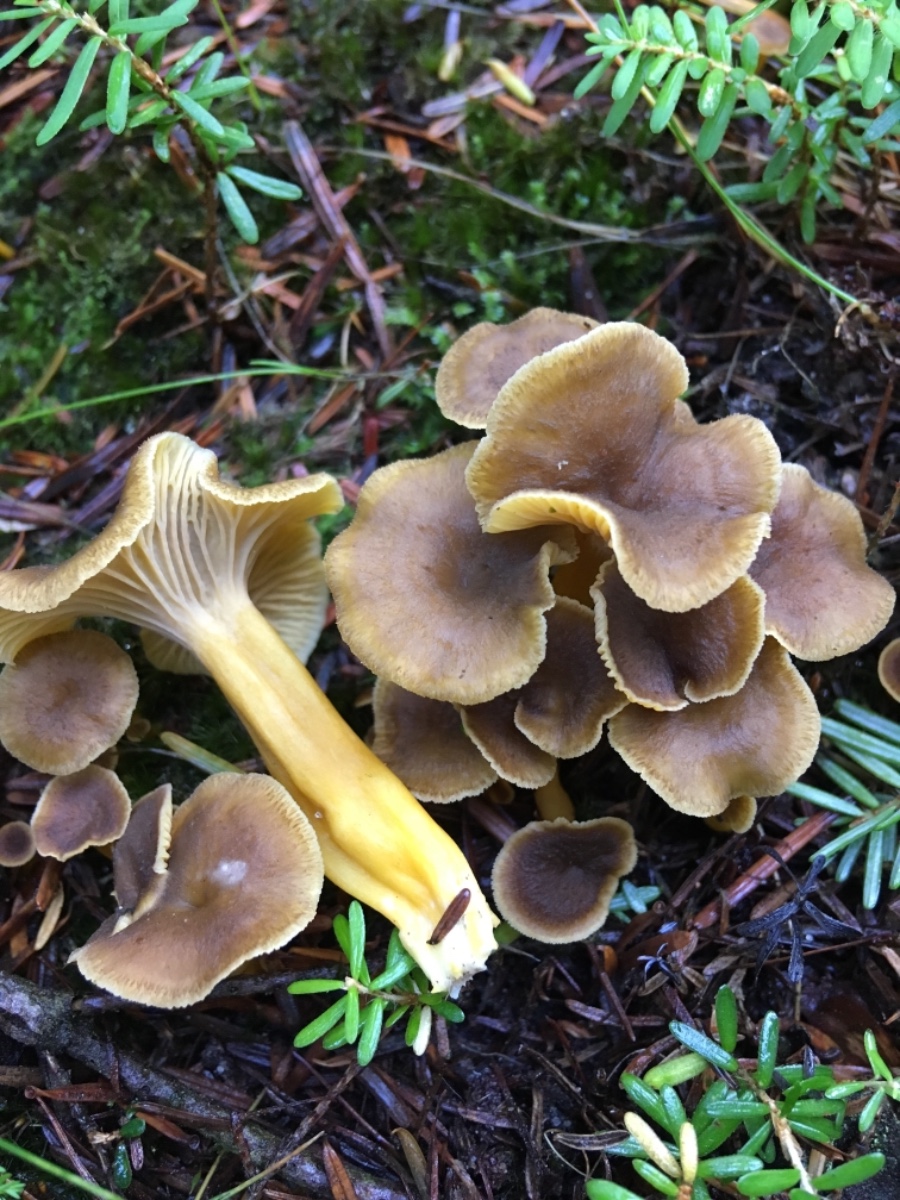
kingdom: Fungi
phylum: Basidiomycota
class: Agaricomycetes
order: Cantharellales
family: Hydnaceae
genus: Craterellus
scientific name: Craterellus tubaeformis
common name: tragt-kantarel
